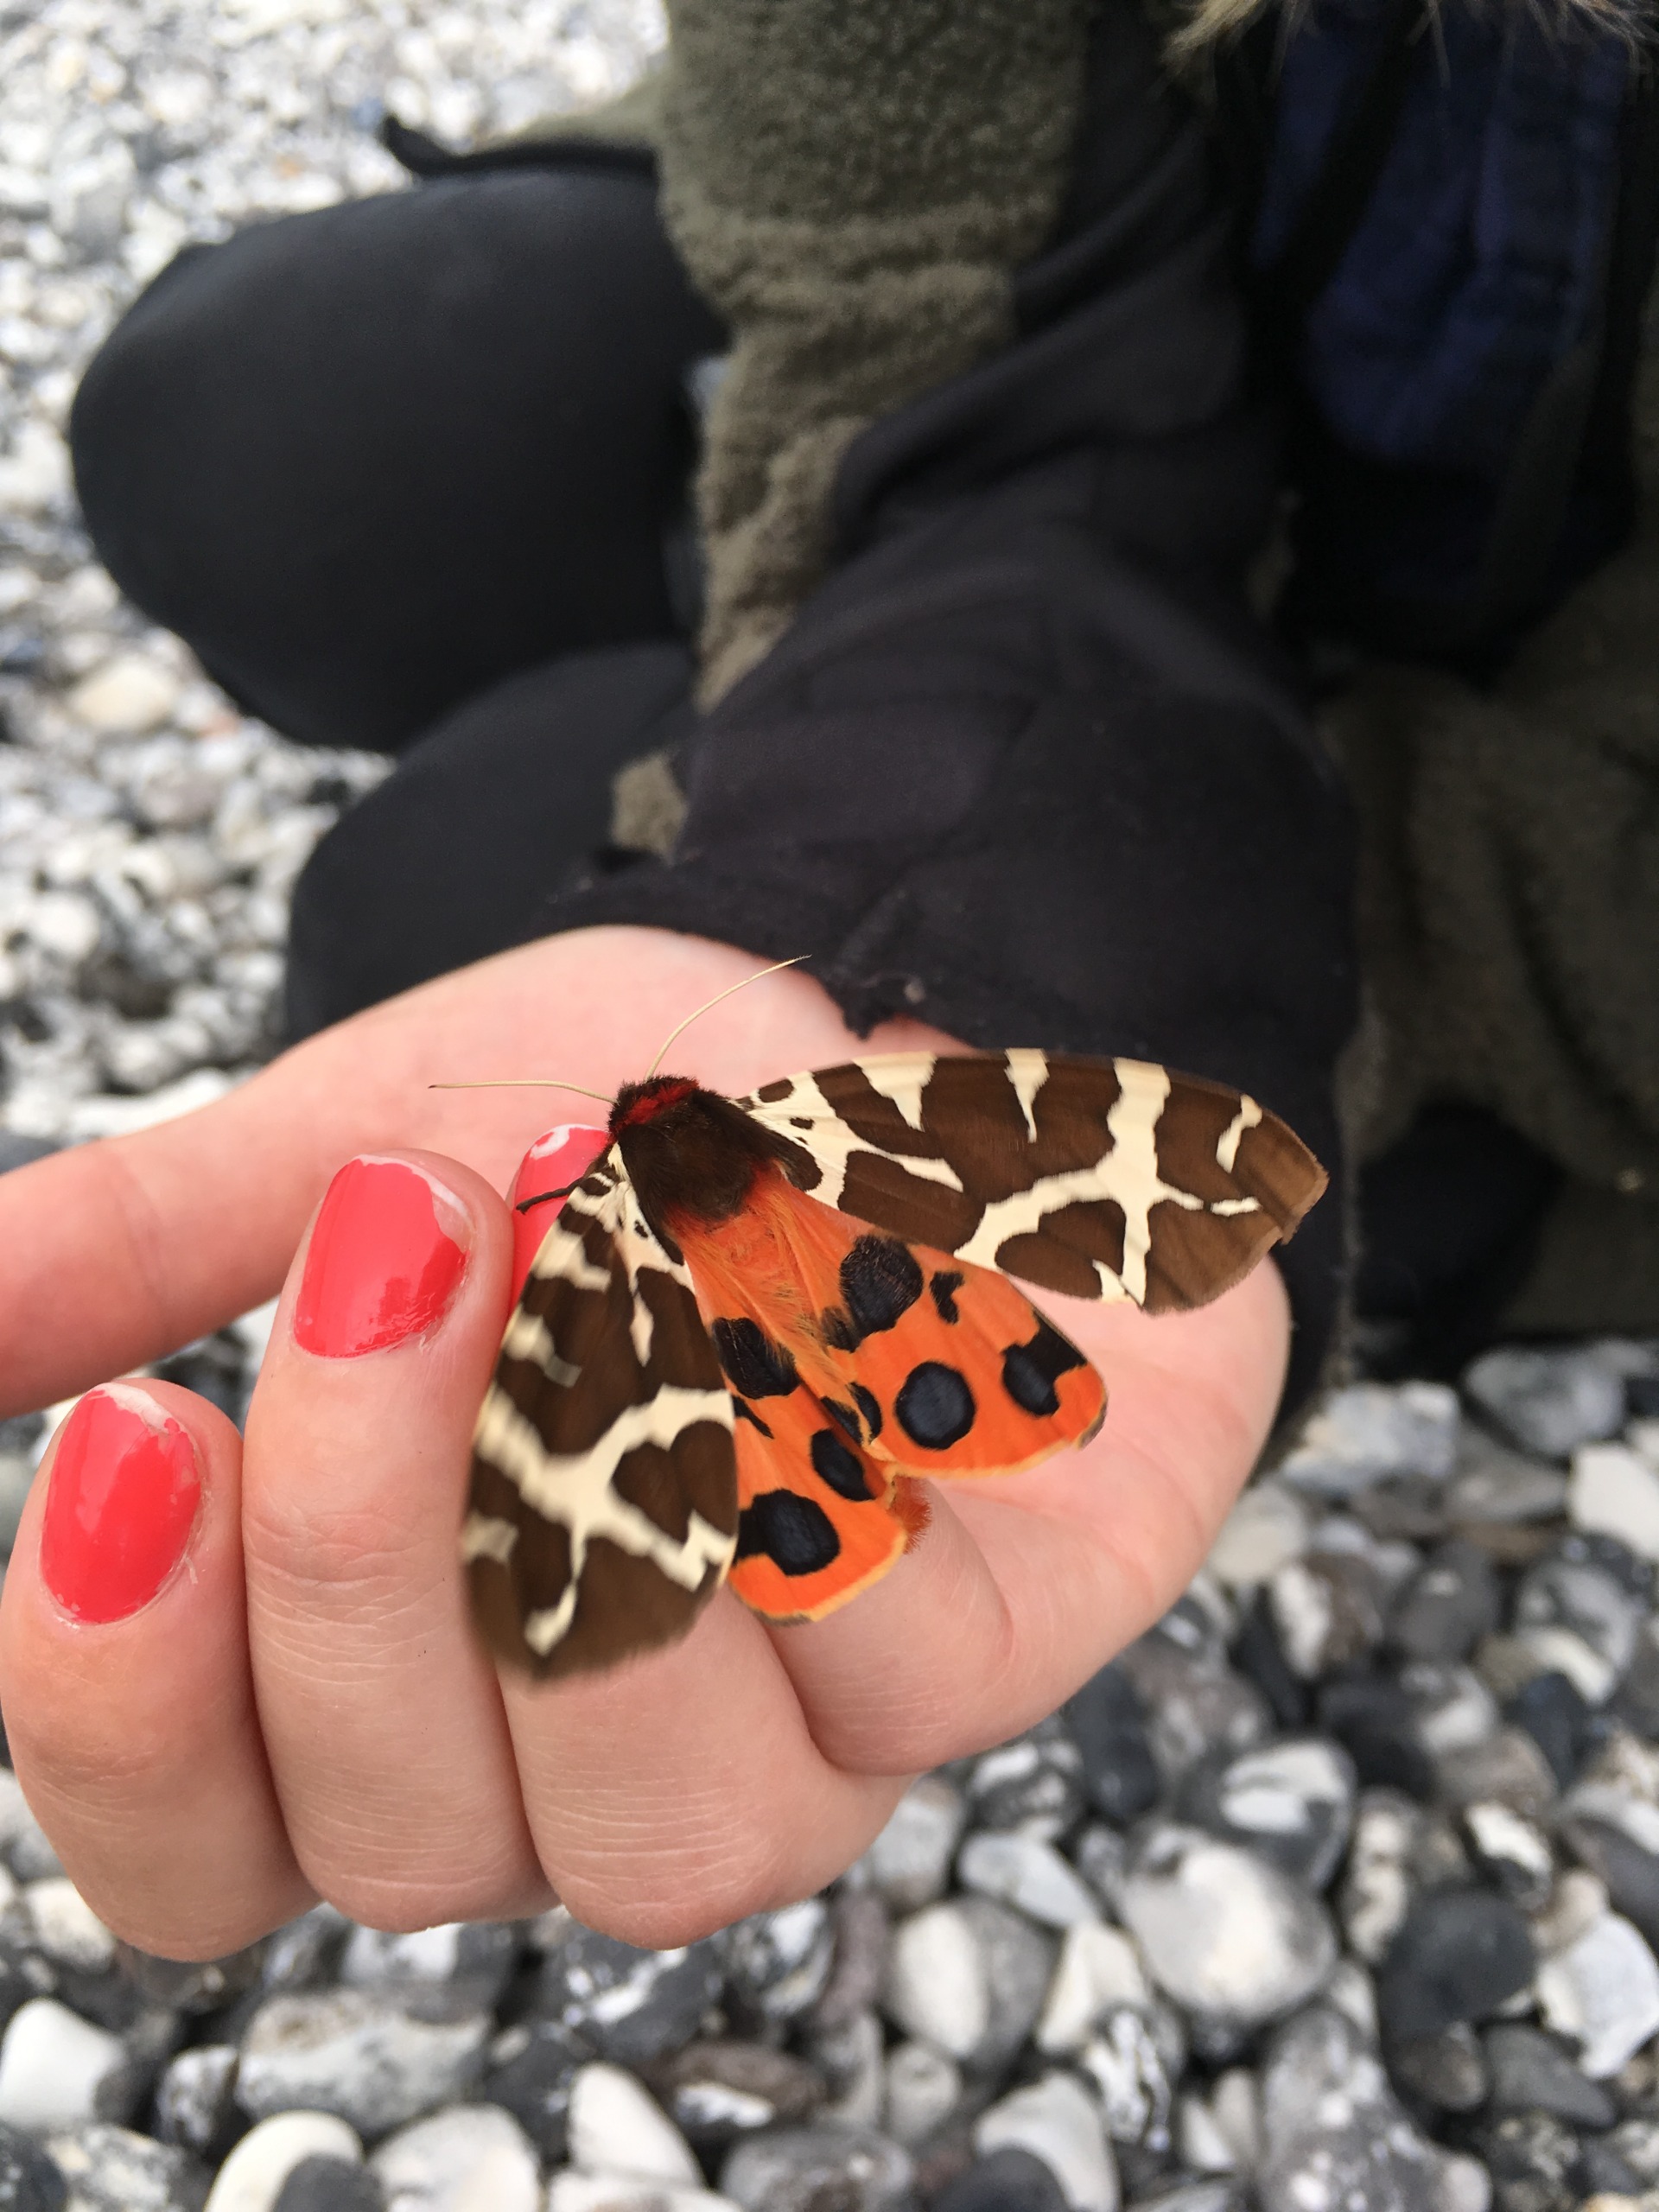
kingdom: Animalia
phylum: Arthropoda
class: Insecta
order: Lepidoptera
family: Erebidae
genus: Arctia
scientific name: Arctia caja
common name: Brun bjørn
